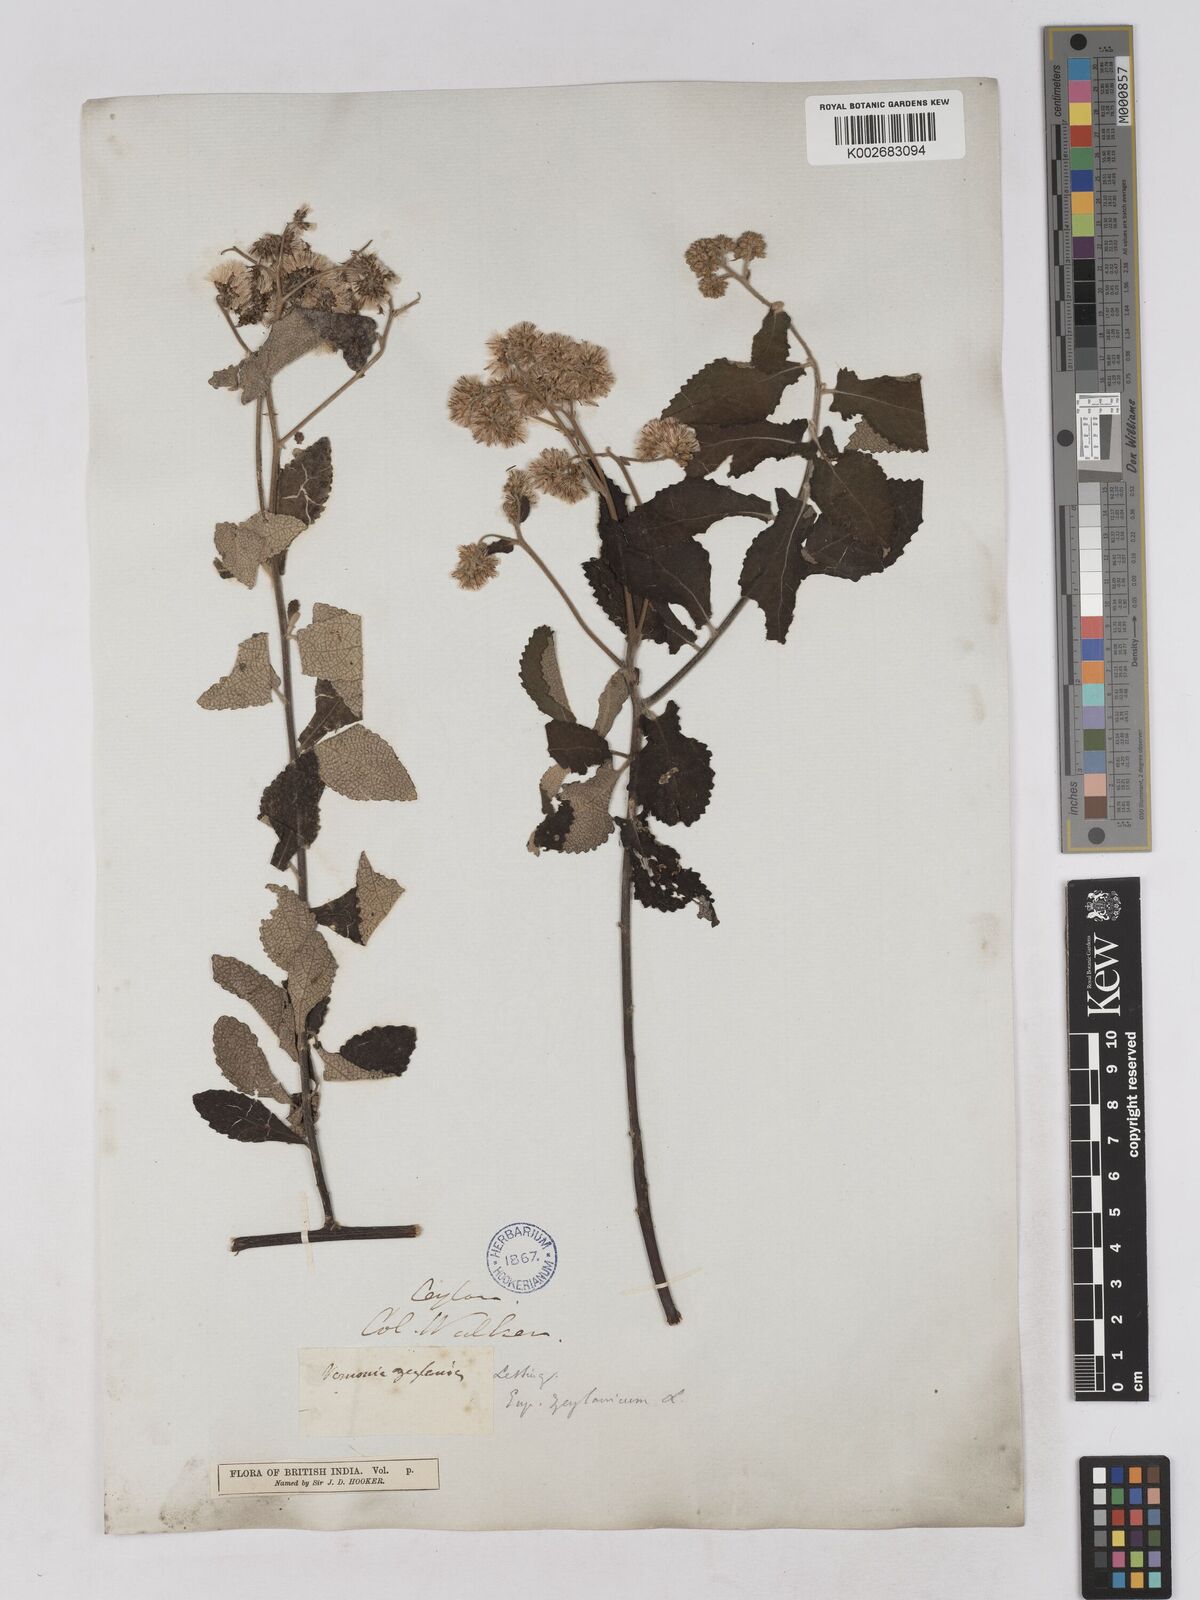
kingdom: Plantae
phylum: Tracheophyta
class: Magnoliopsida
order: Asterales
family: Asteraceae
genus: Jeffreycia
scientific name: Jeffreycia zeylanica
